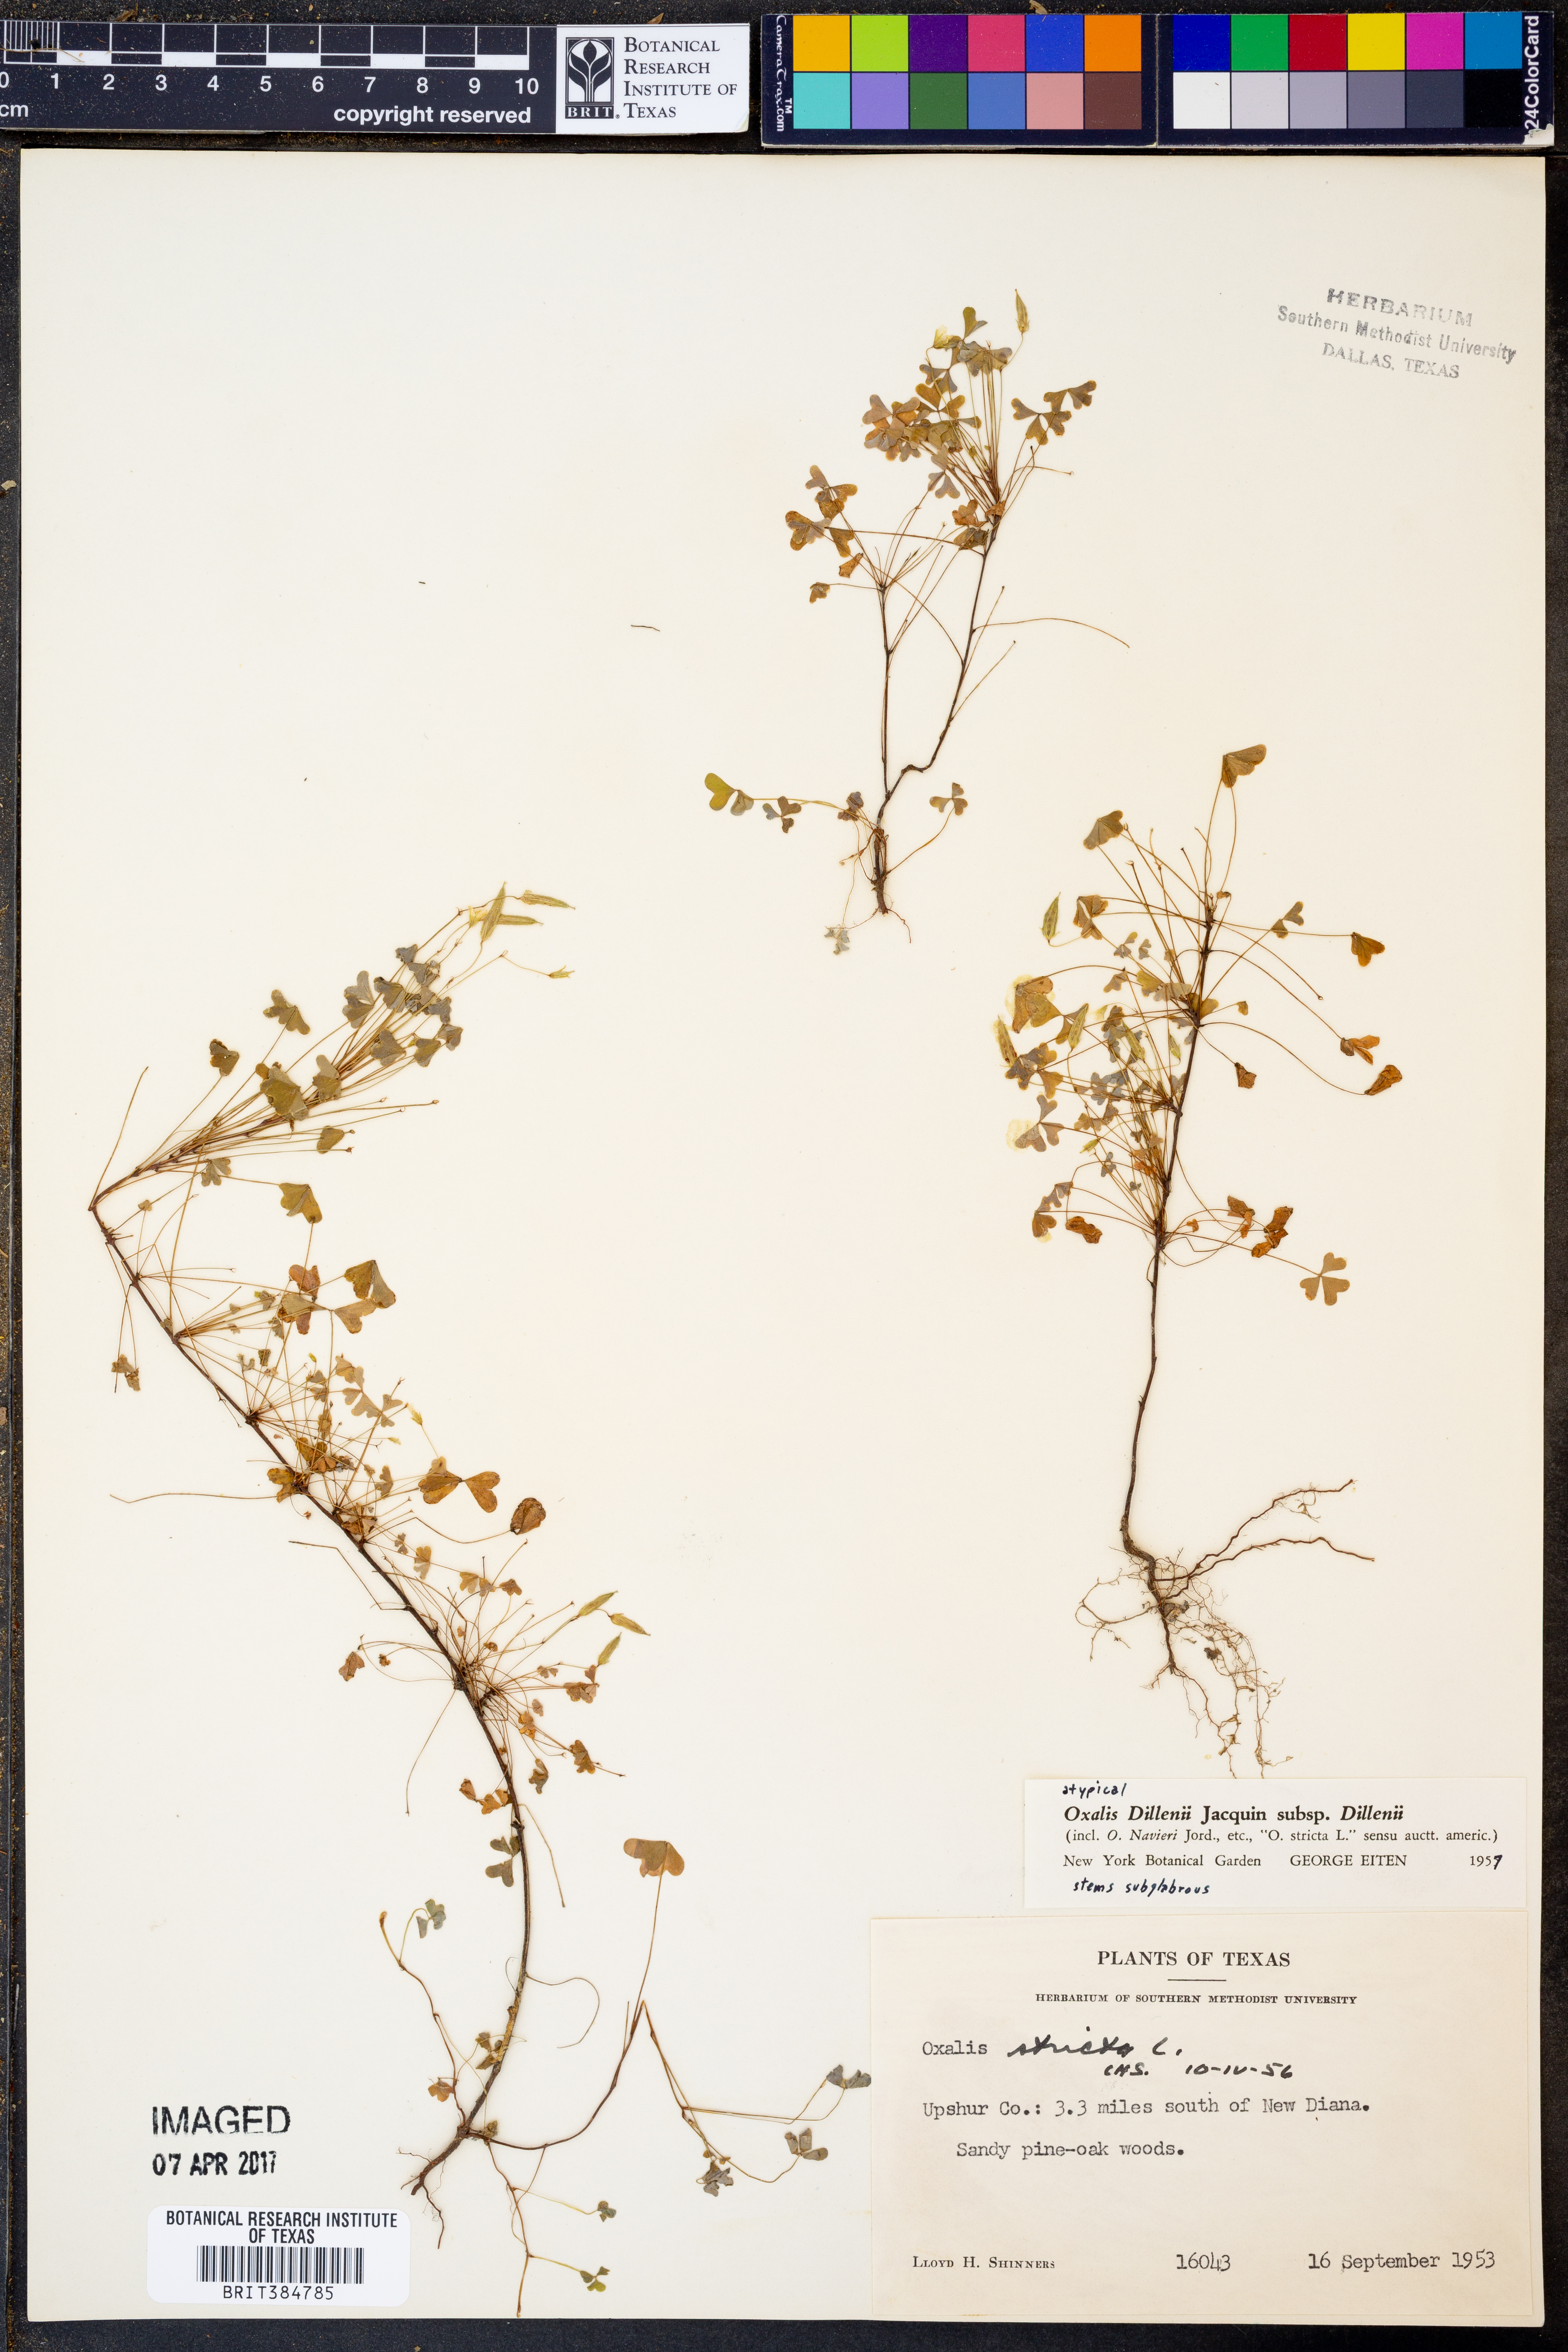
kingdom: Plantae
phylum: Tracheophyta
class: Magnoliopsida
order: Oxalidales
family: Oxalidaceae
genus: Oxalis
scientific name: Oxalis dillenii
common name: Sussex yellow-sorrel
